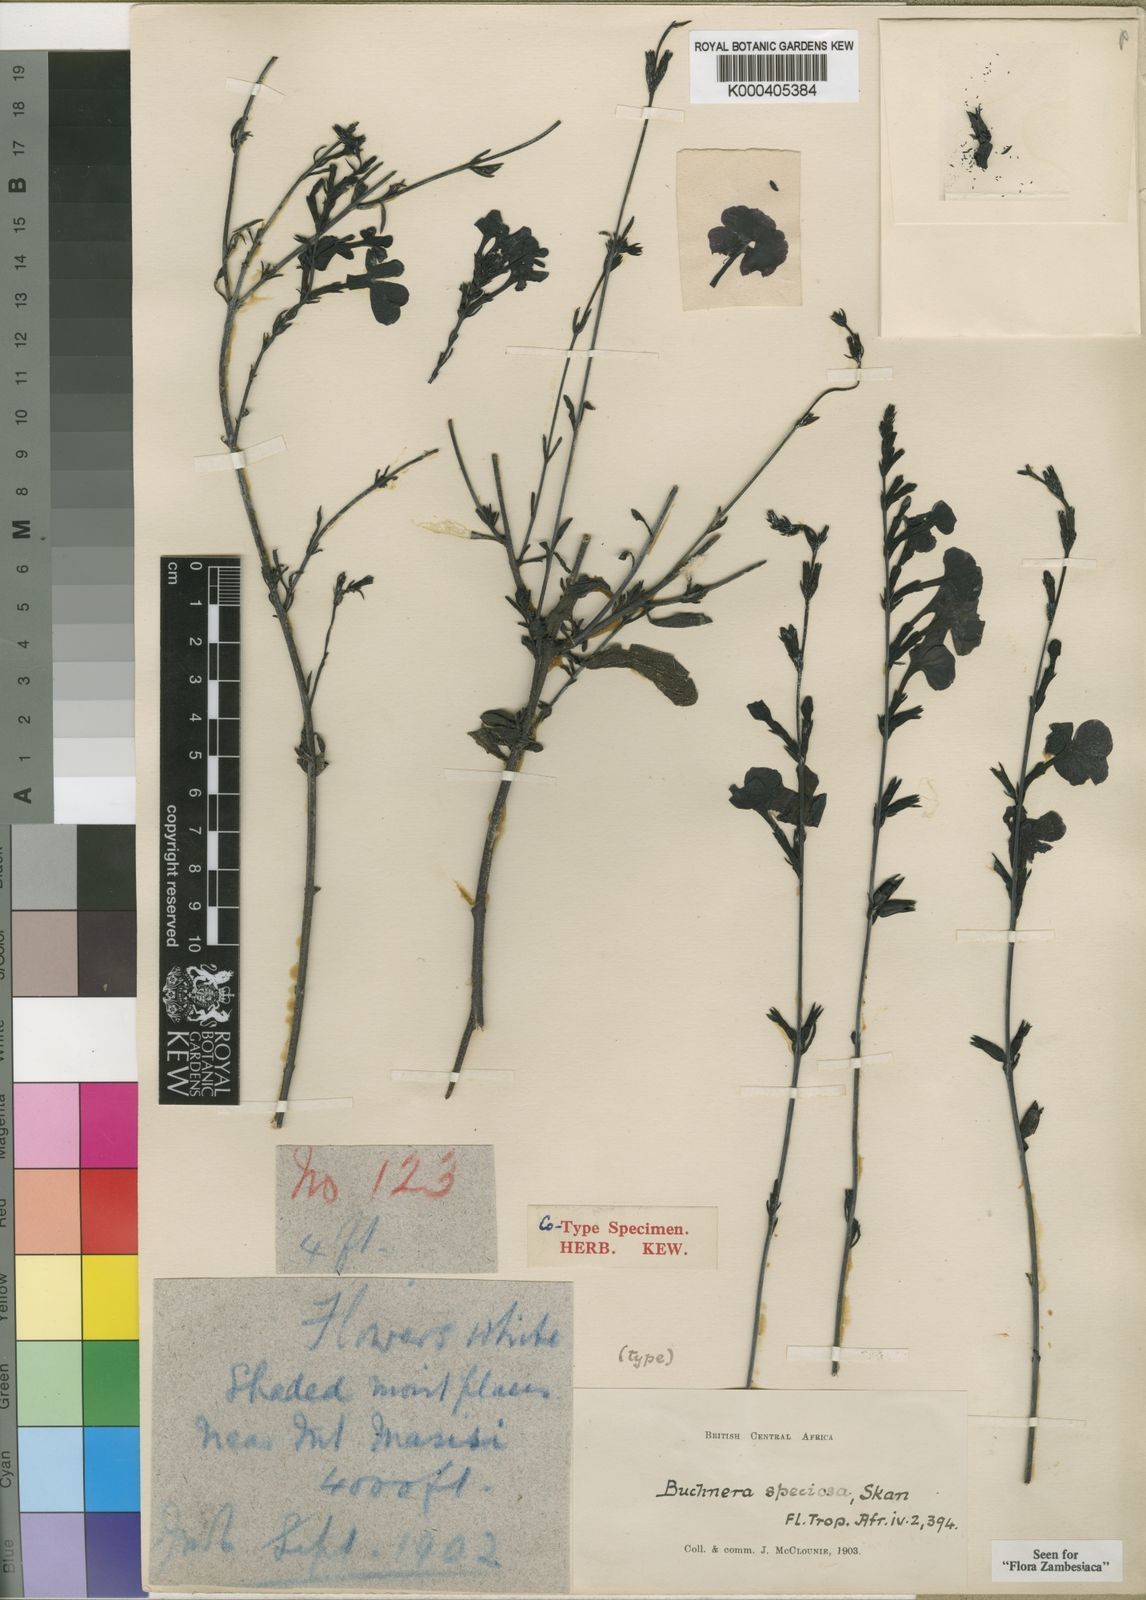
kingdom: Plantae
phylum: Tracheophyta
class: Magnoliopsida
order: Lamiales
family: Orobanchaceae
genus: Buchnera
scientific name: Buchnera speciosa
